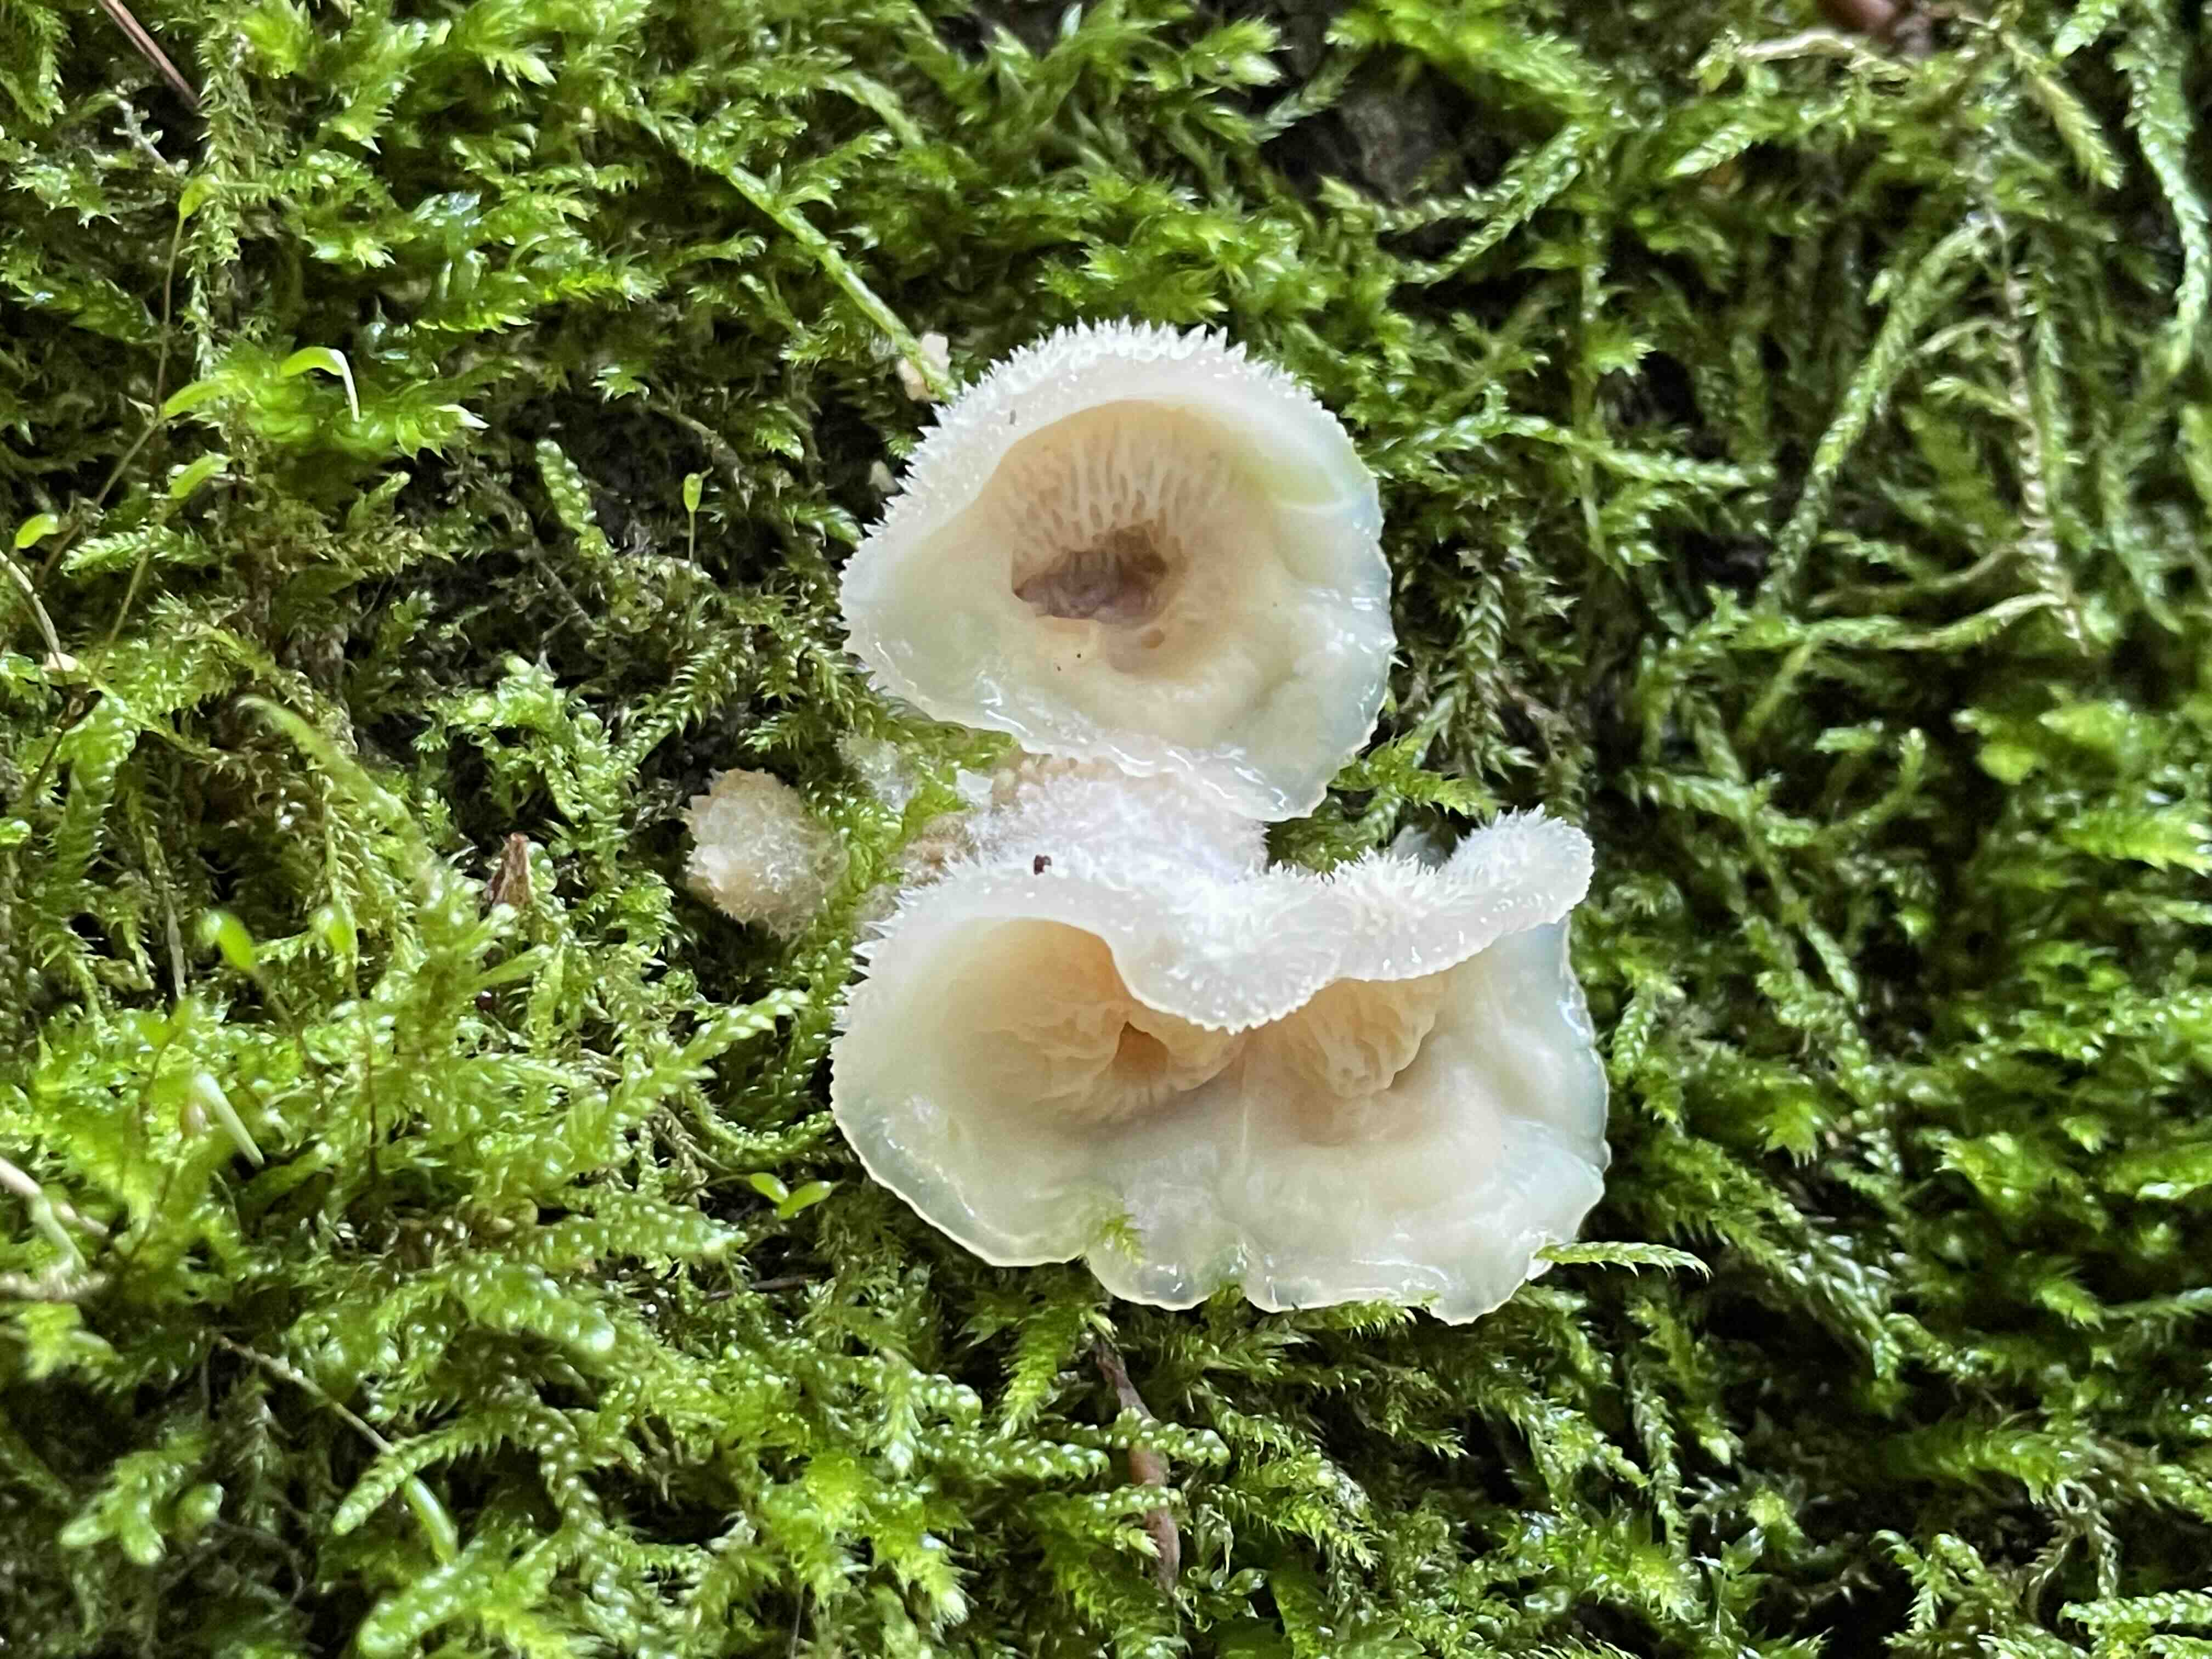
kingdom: Fungi
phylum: Basidiomycota
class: Agaricomycetes
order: Polyporales
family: Meruliaceae
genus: Phlebia
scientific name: Phlebia tremellosa
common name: bævrende åresvamp
